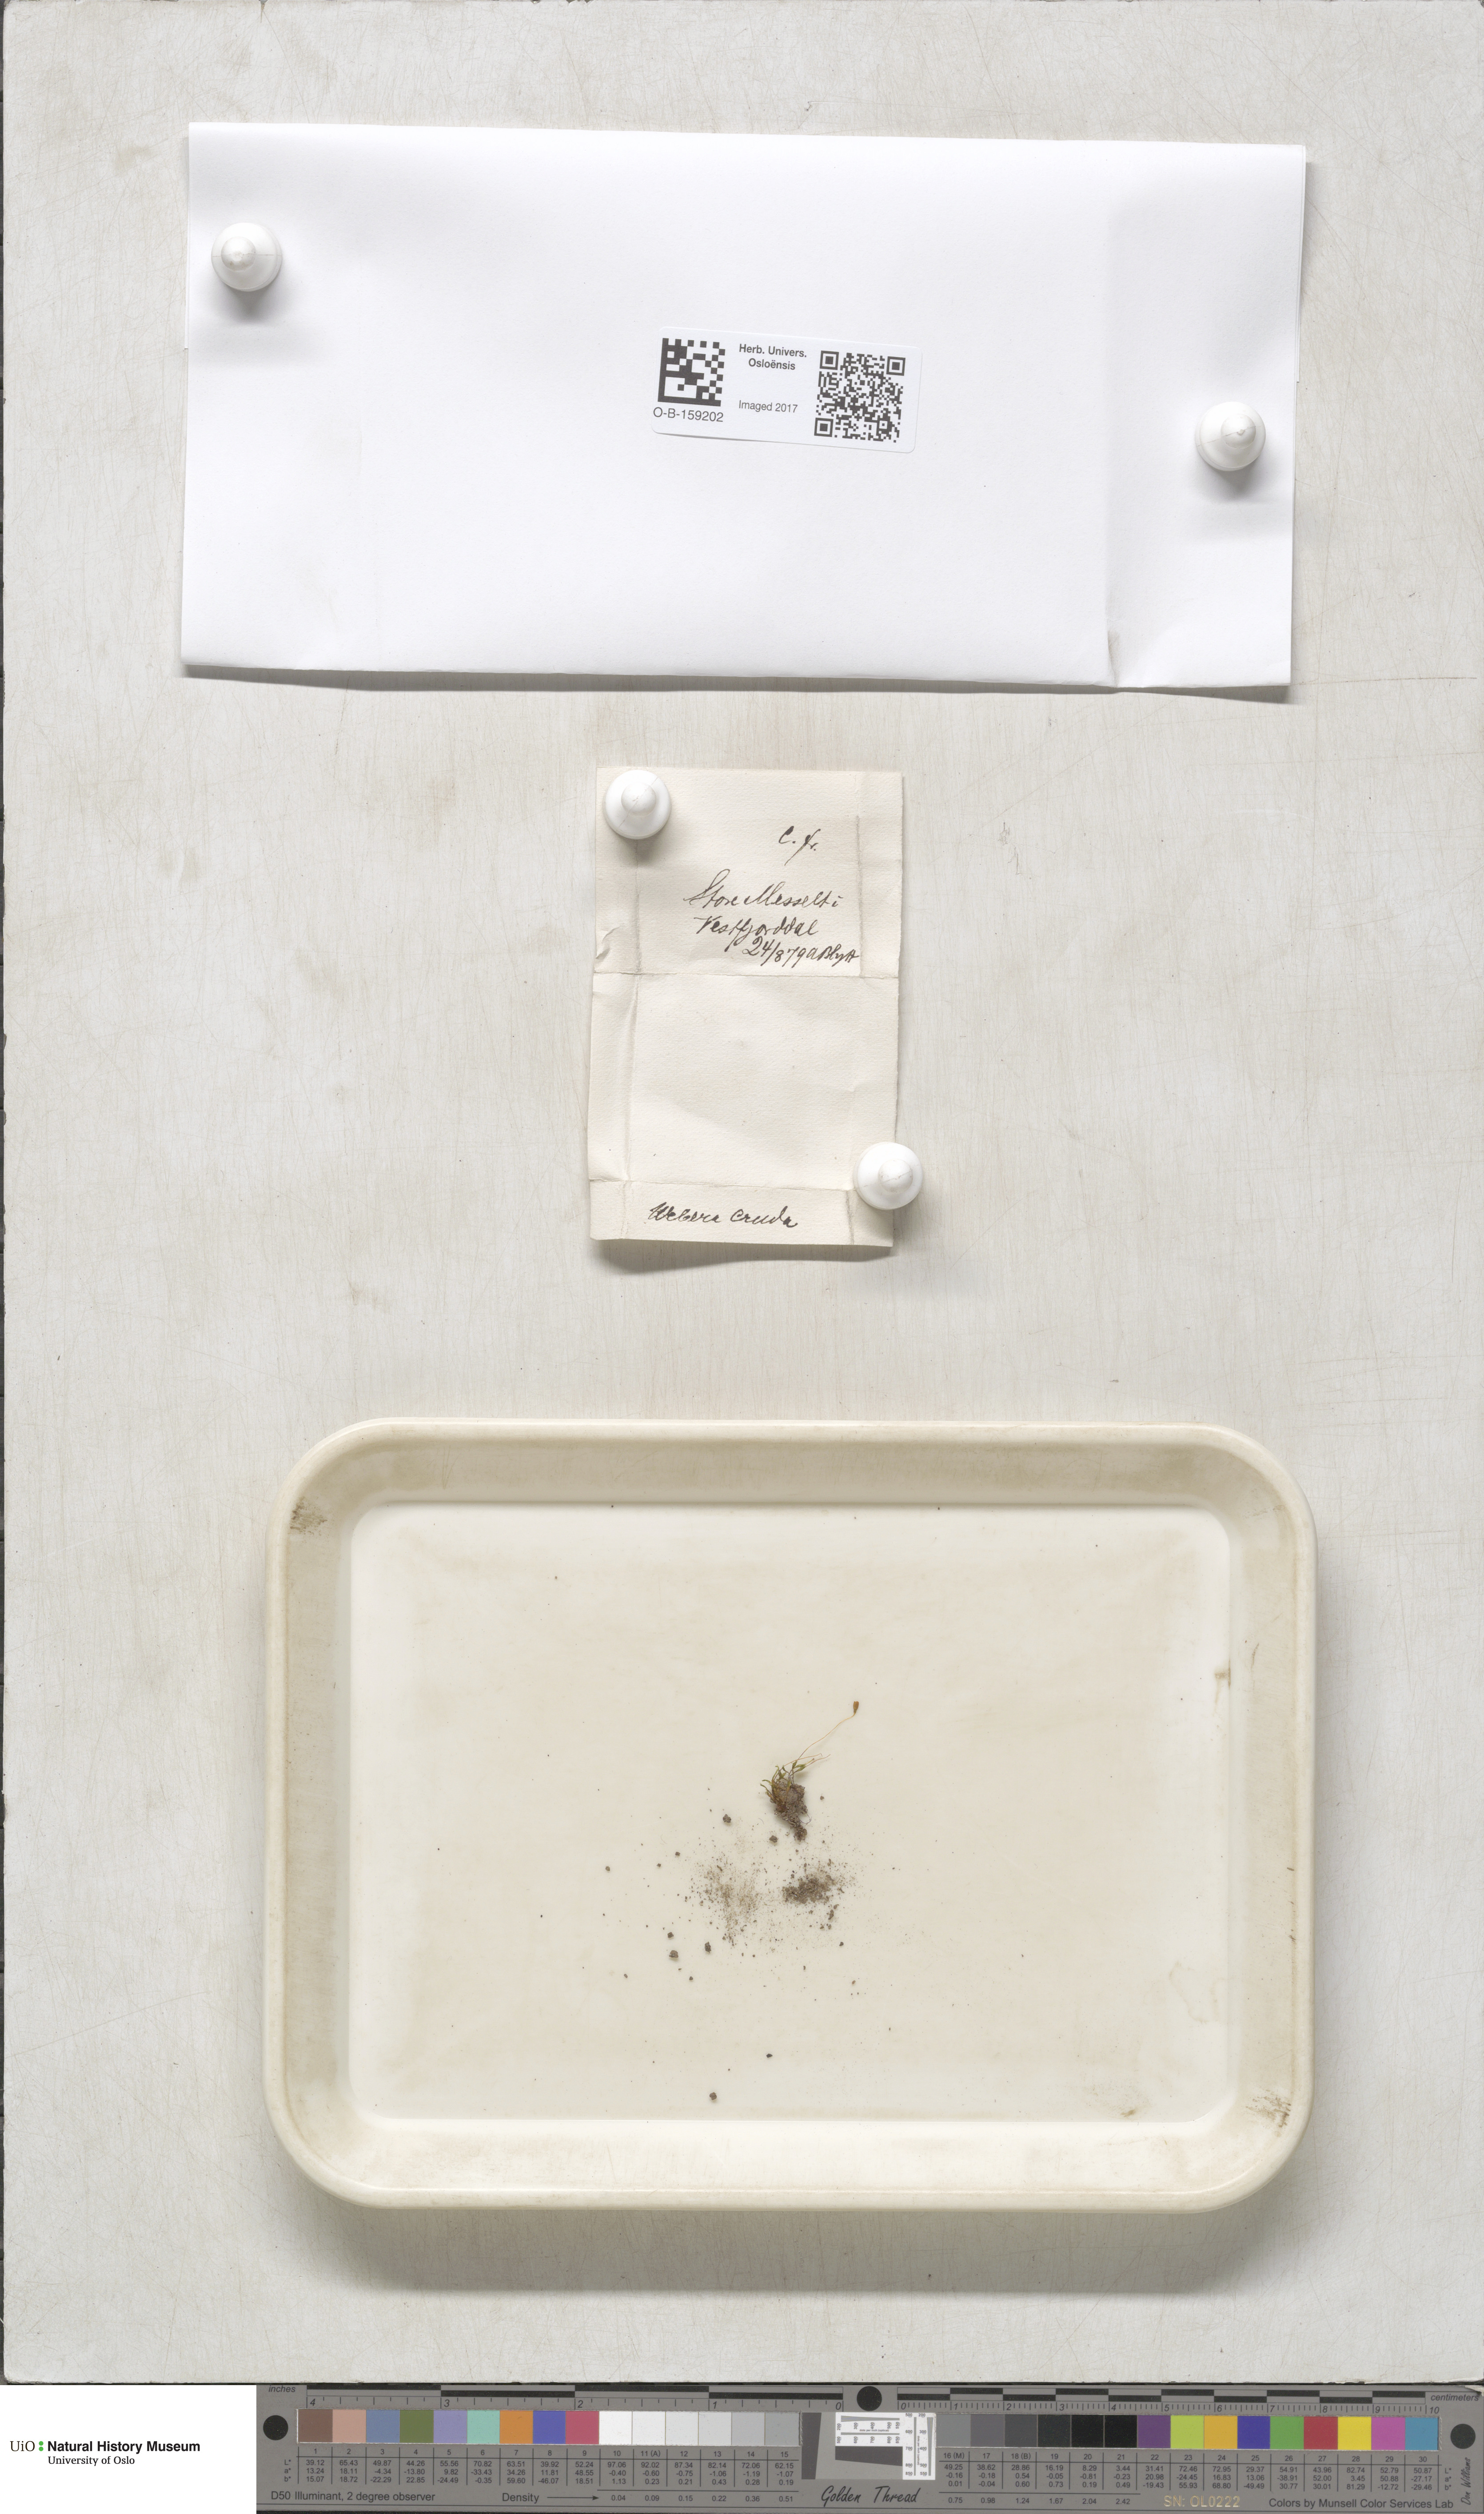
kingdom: Plantae
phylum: Bryophyta
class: Bryopsida
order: Bryales
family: Mniaceae
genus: Pohlia
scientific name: Pohlia cruda
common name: Opal nodding moss
